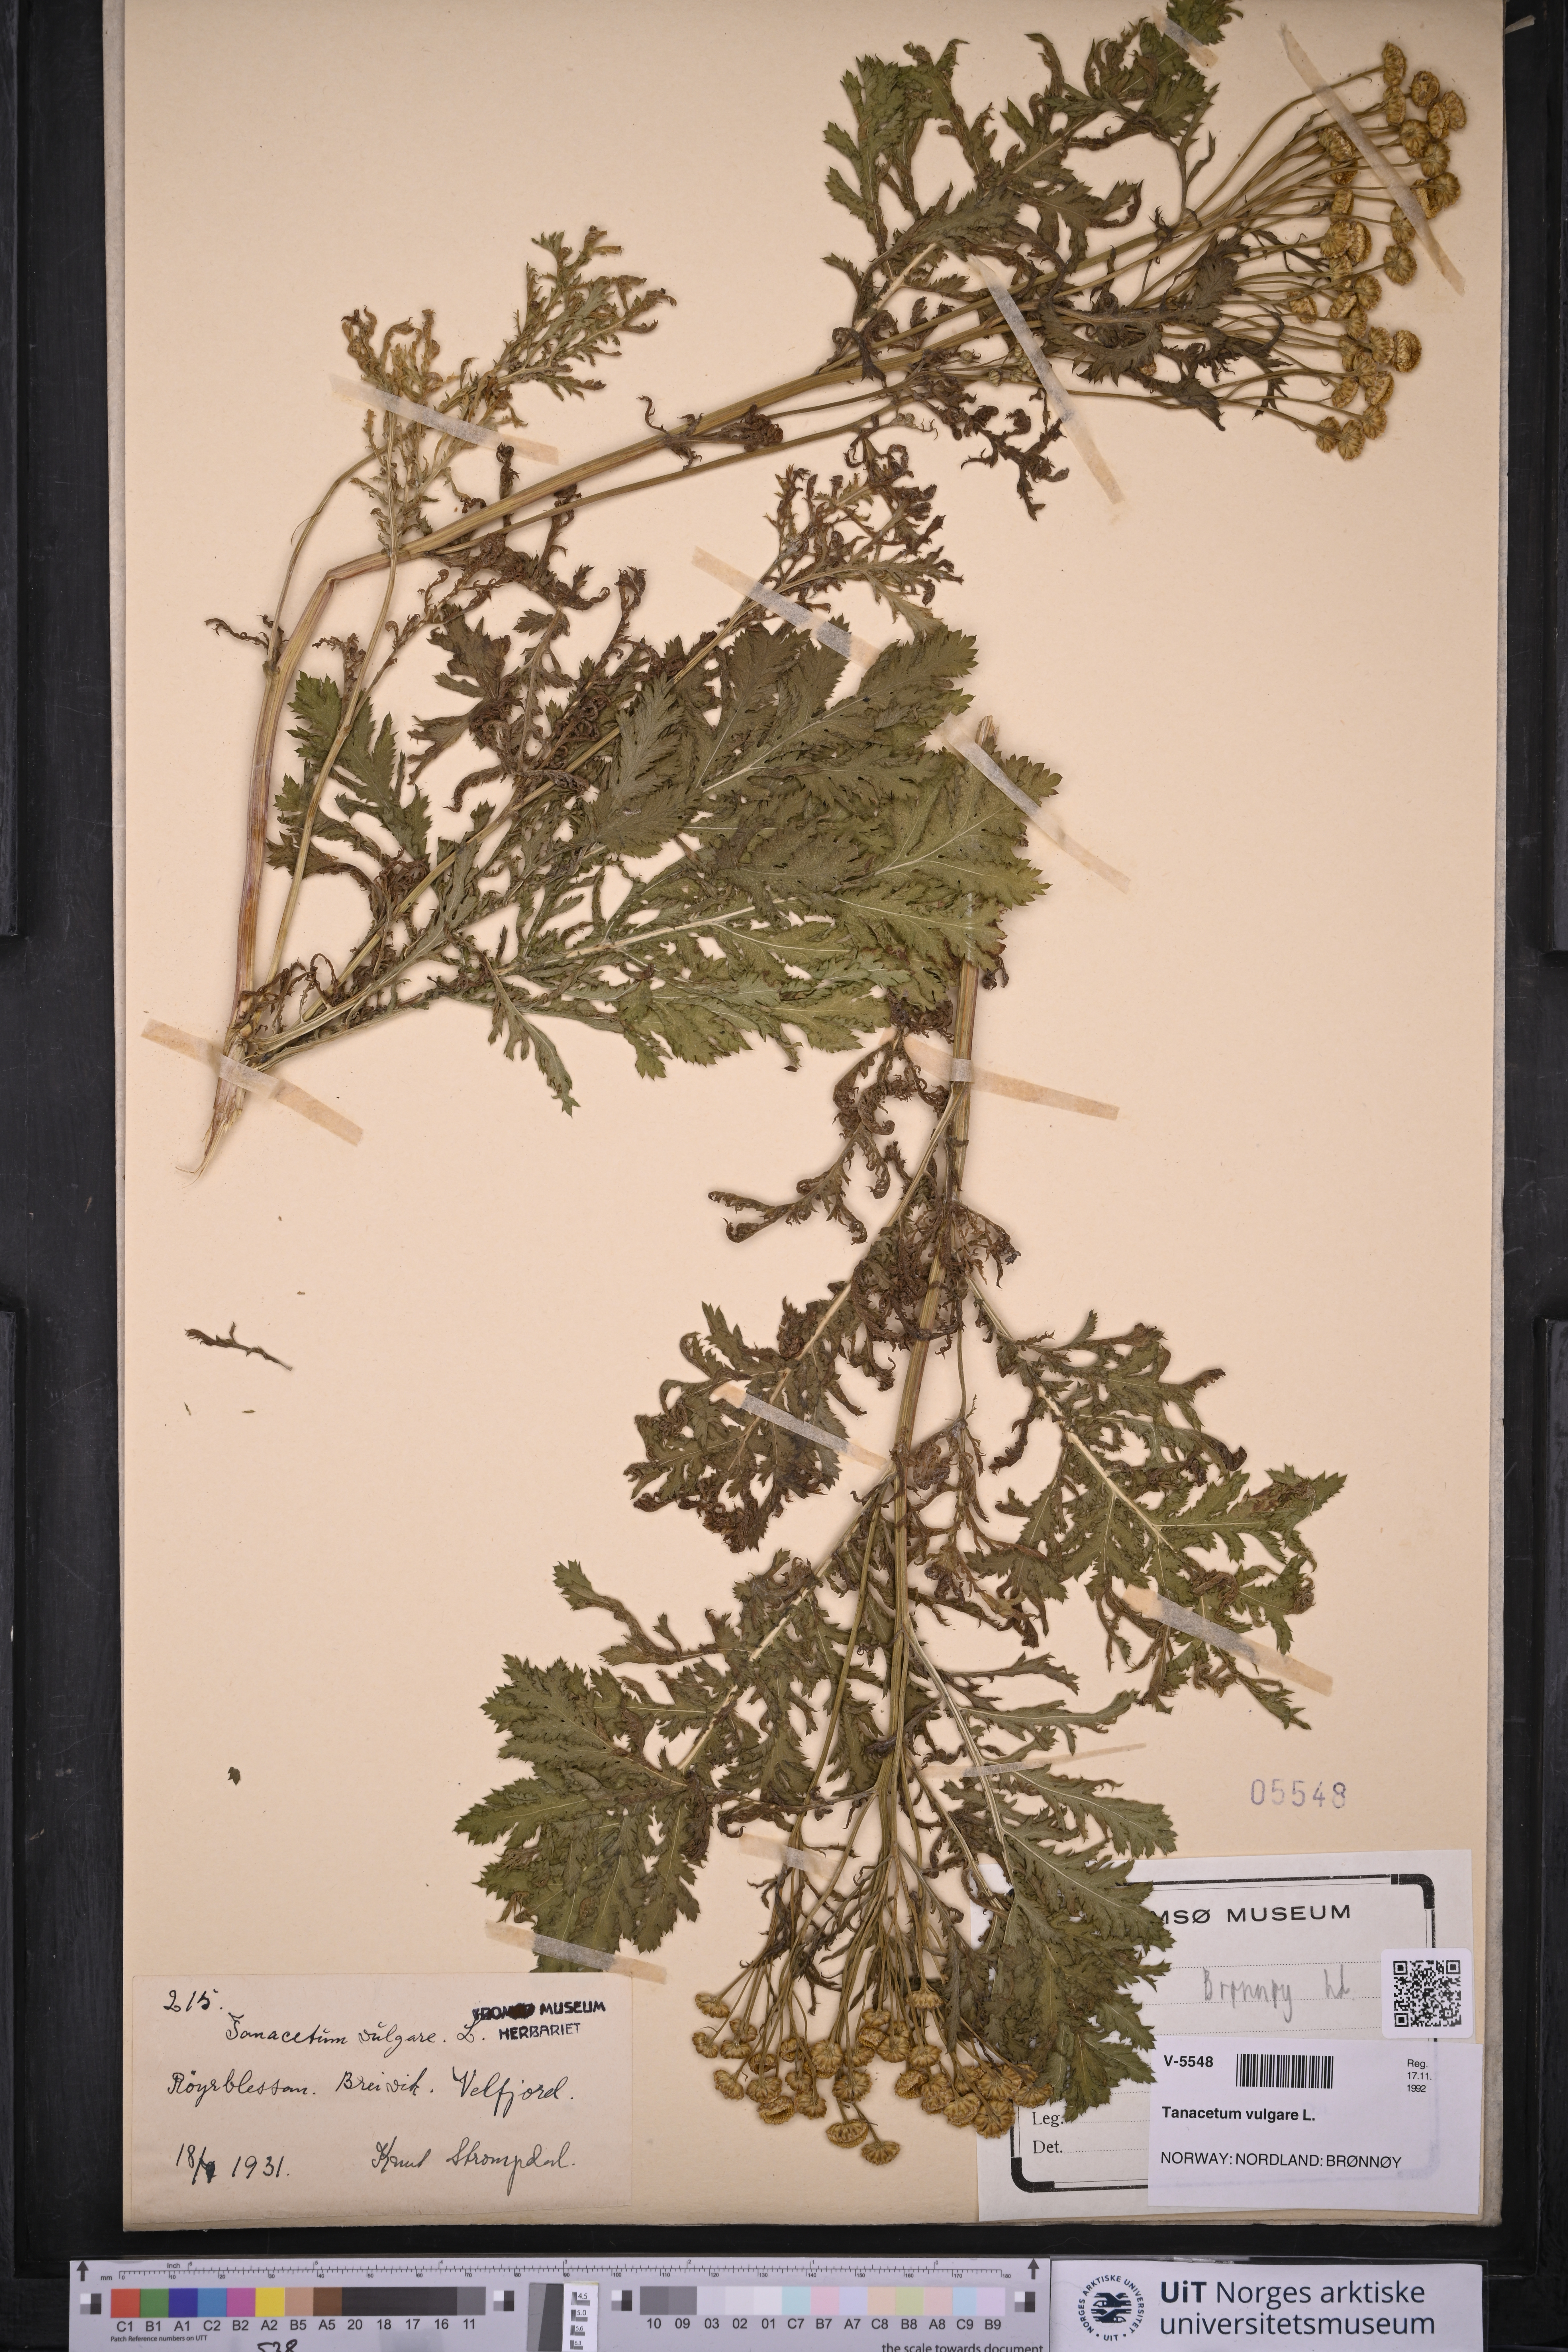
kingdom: Plantae
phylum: Tracheophyta
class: Magnoliopsida
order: Asterales
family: Asteraceae
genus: Tanacetum
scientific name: Tanacetum vulgare
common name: Common tansy
